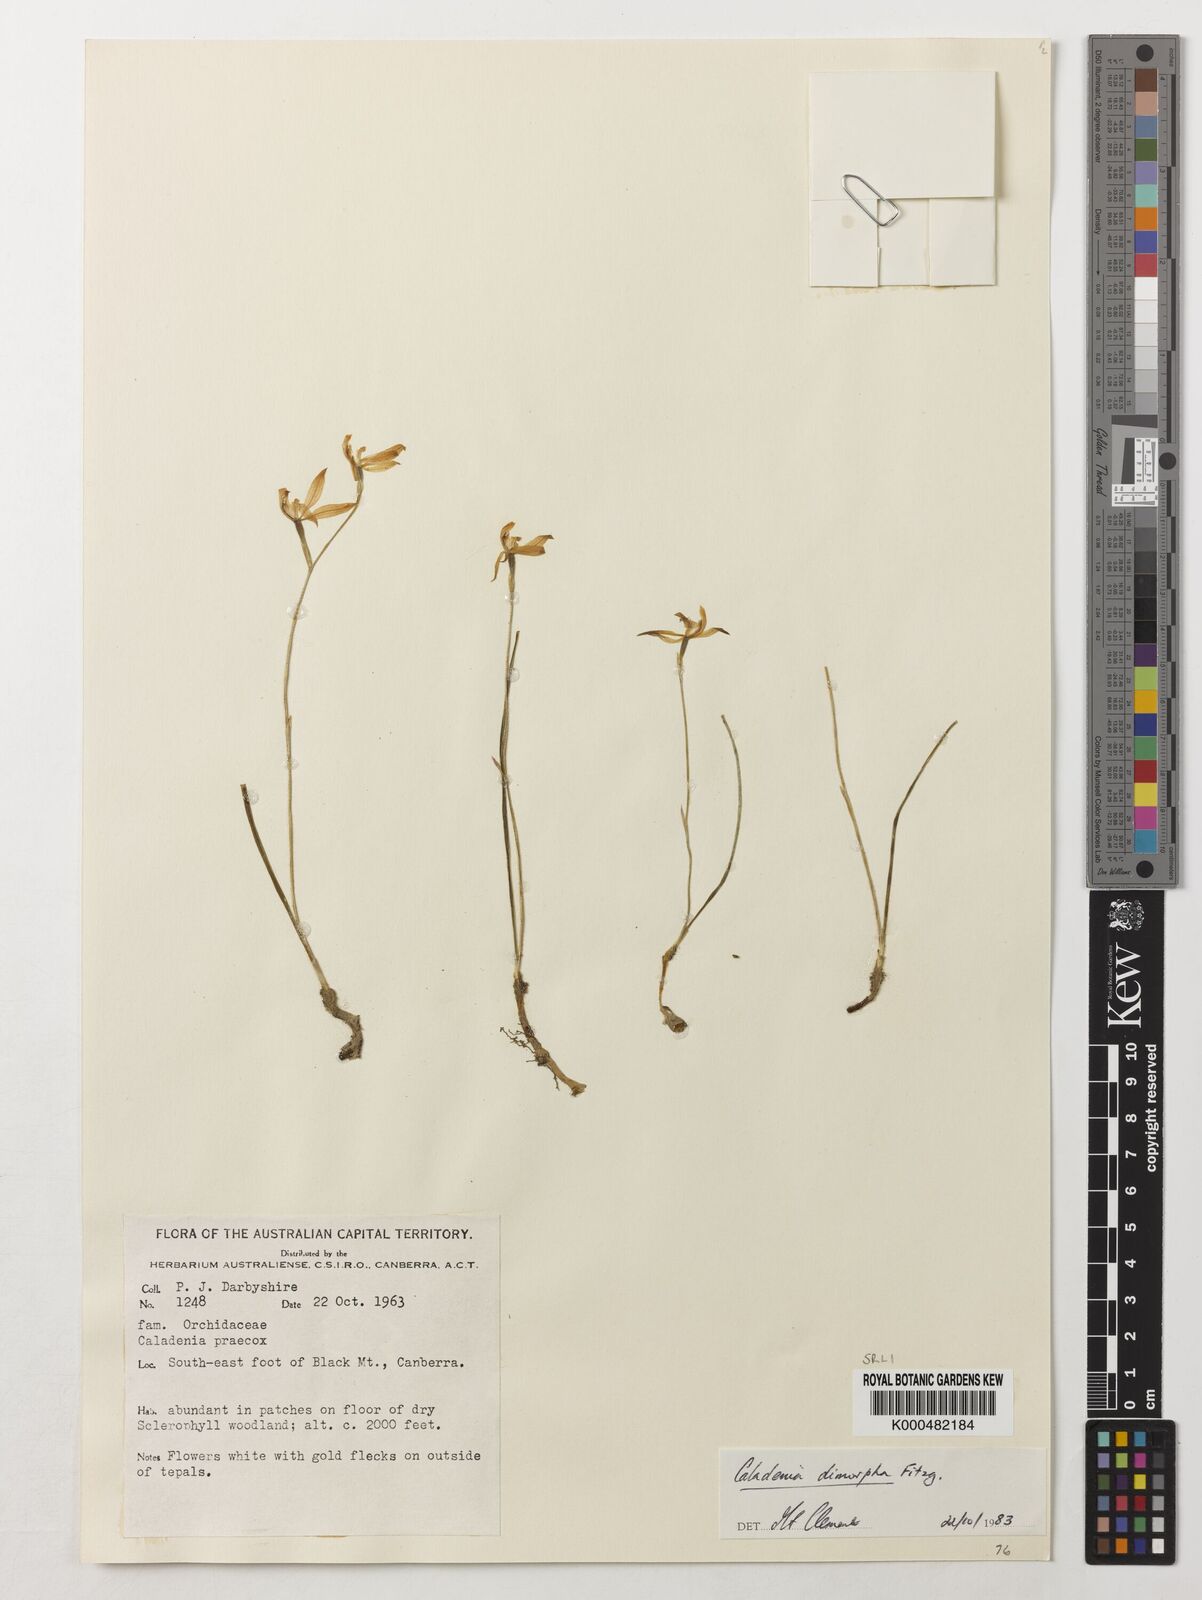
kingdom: Plantae
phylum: Tracheophyta
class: Liliopsida
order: Asparagales
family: Orchidaceae
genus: Caladenia
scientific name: Caladenia
